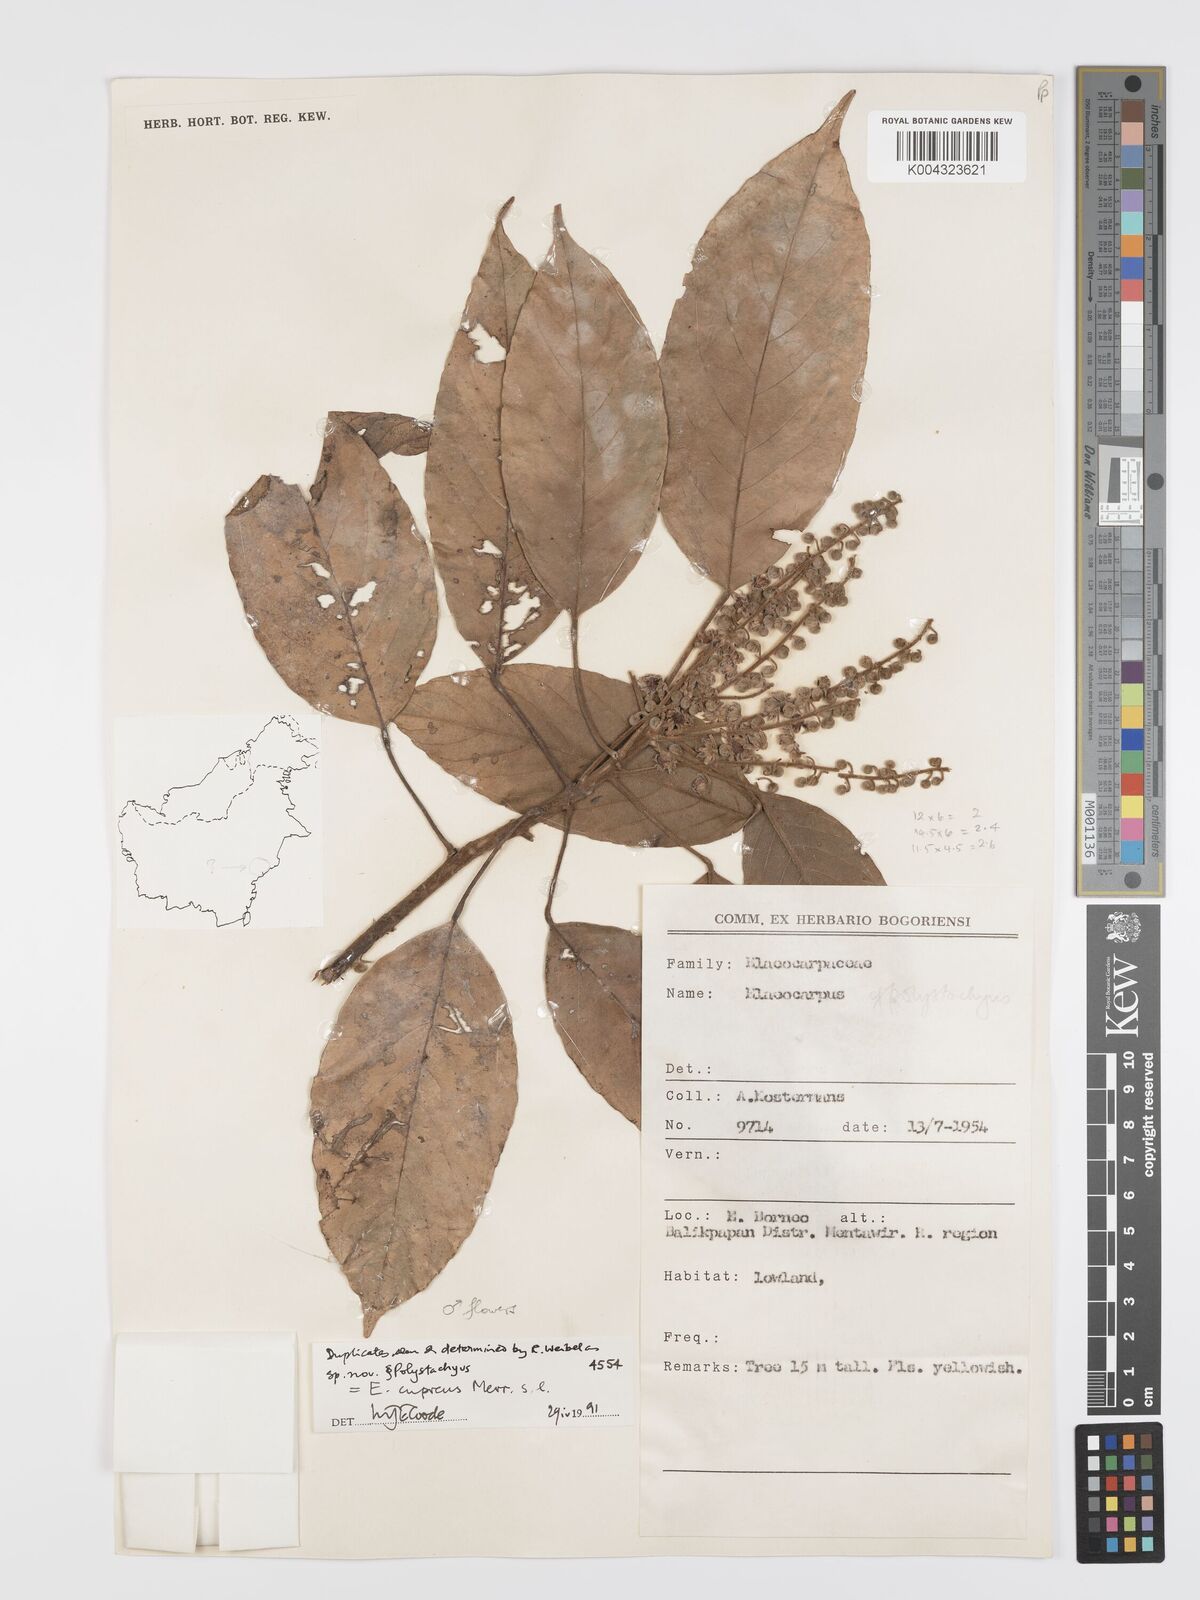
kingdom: Plantae
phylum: Tracheophyta
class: Magnoliopsida
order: Oxalidales
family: Elaeocarpaceae
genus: Elaeocarpus
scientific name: Elaeocarpus cupreus
